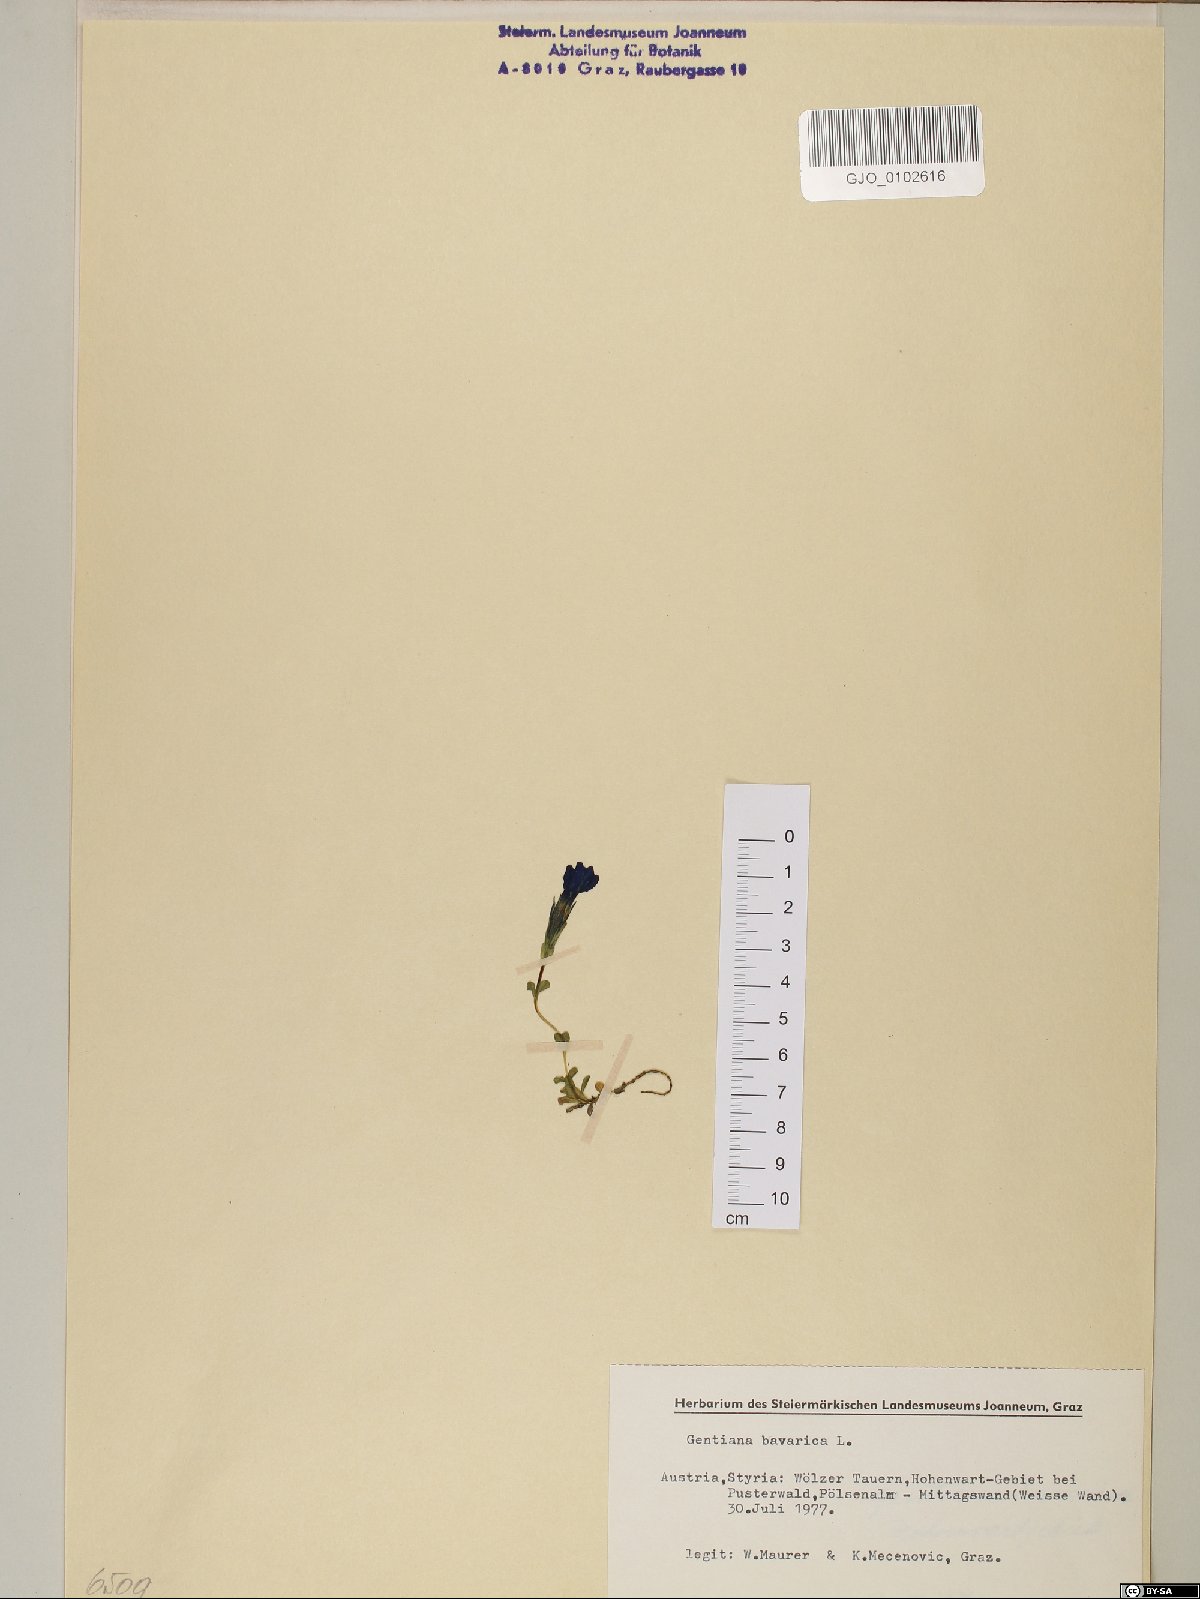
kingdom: Plantae
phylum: Tracheophyta
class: Magnoliopsida
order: Gentianales
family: Gentianaceae
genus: Gentiana
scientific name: Gentiana bavarica
